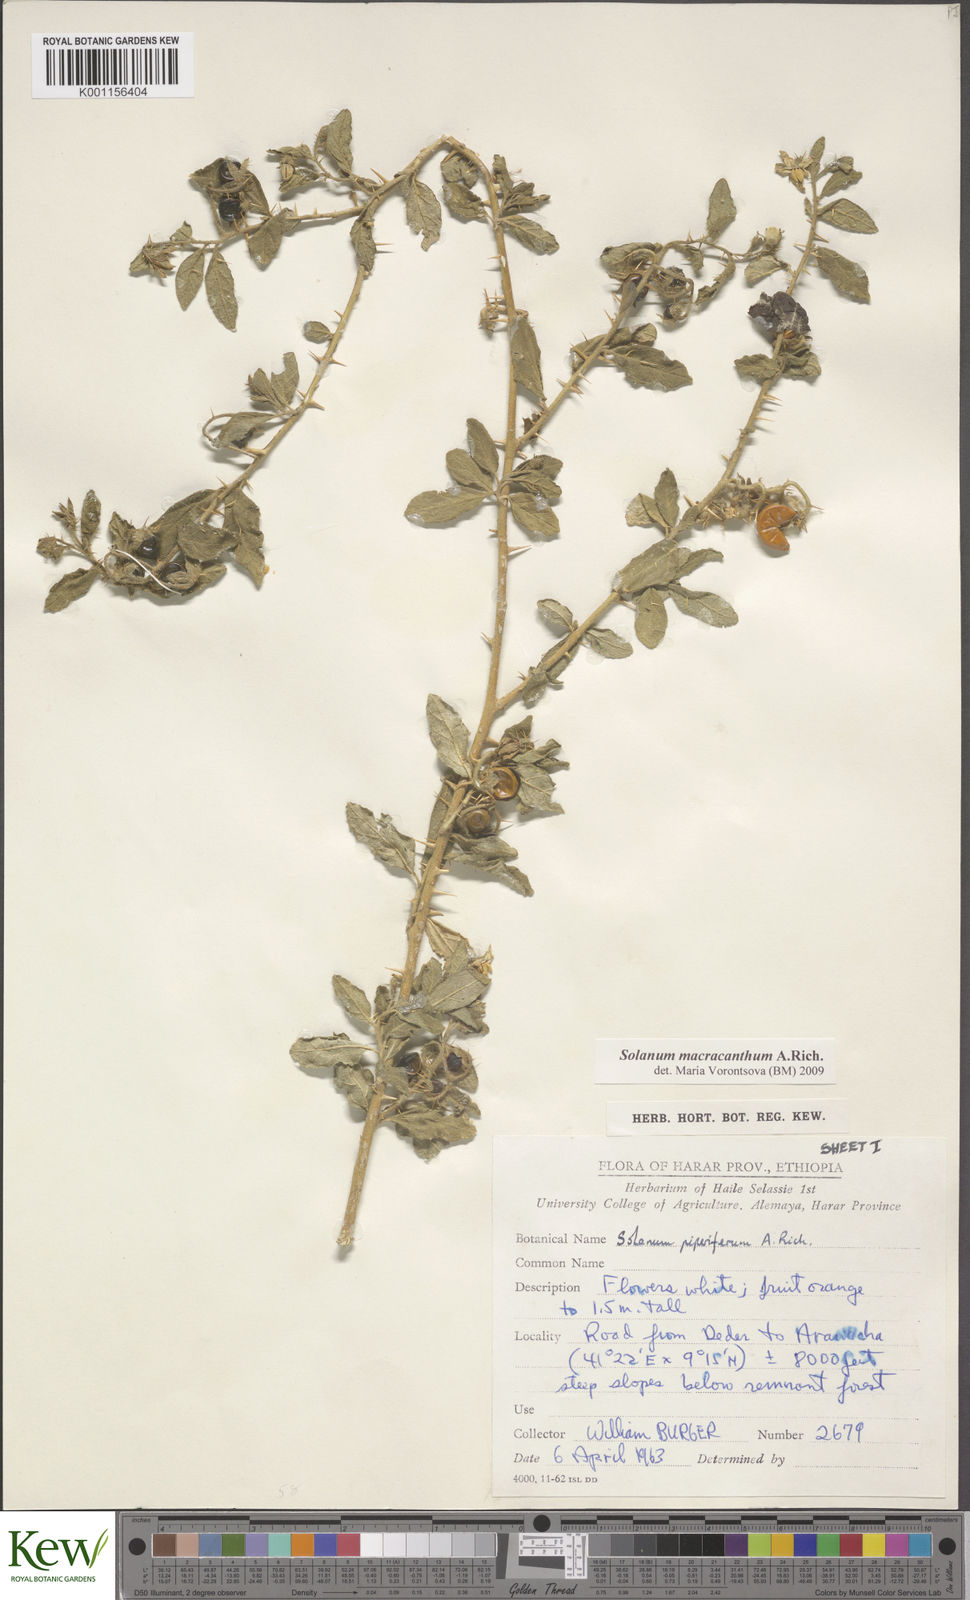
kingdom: Plantae
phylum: Tracheophyta
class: Magnoliopsida
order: Solanales
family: Solanaceae
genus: Solanum
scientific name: Solanum macracanthum
